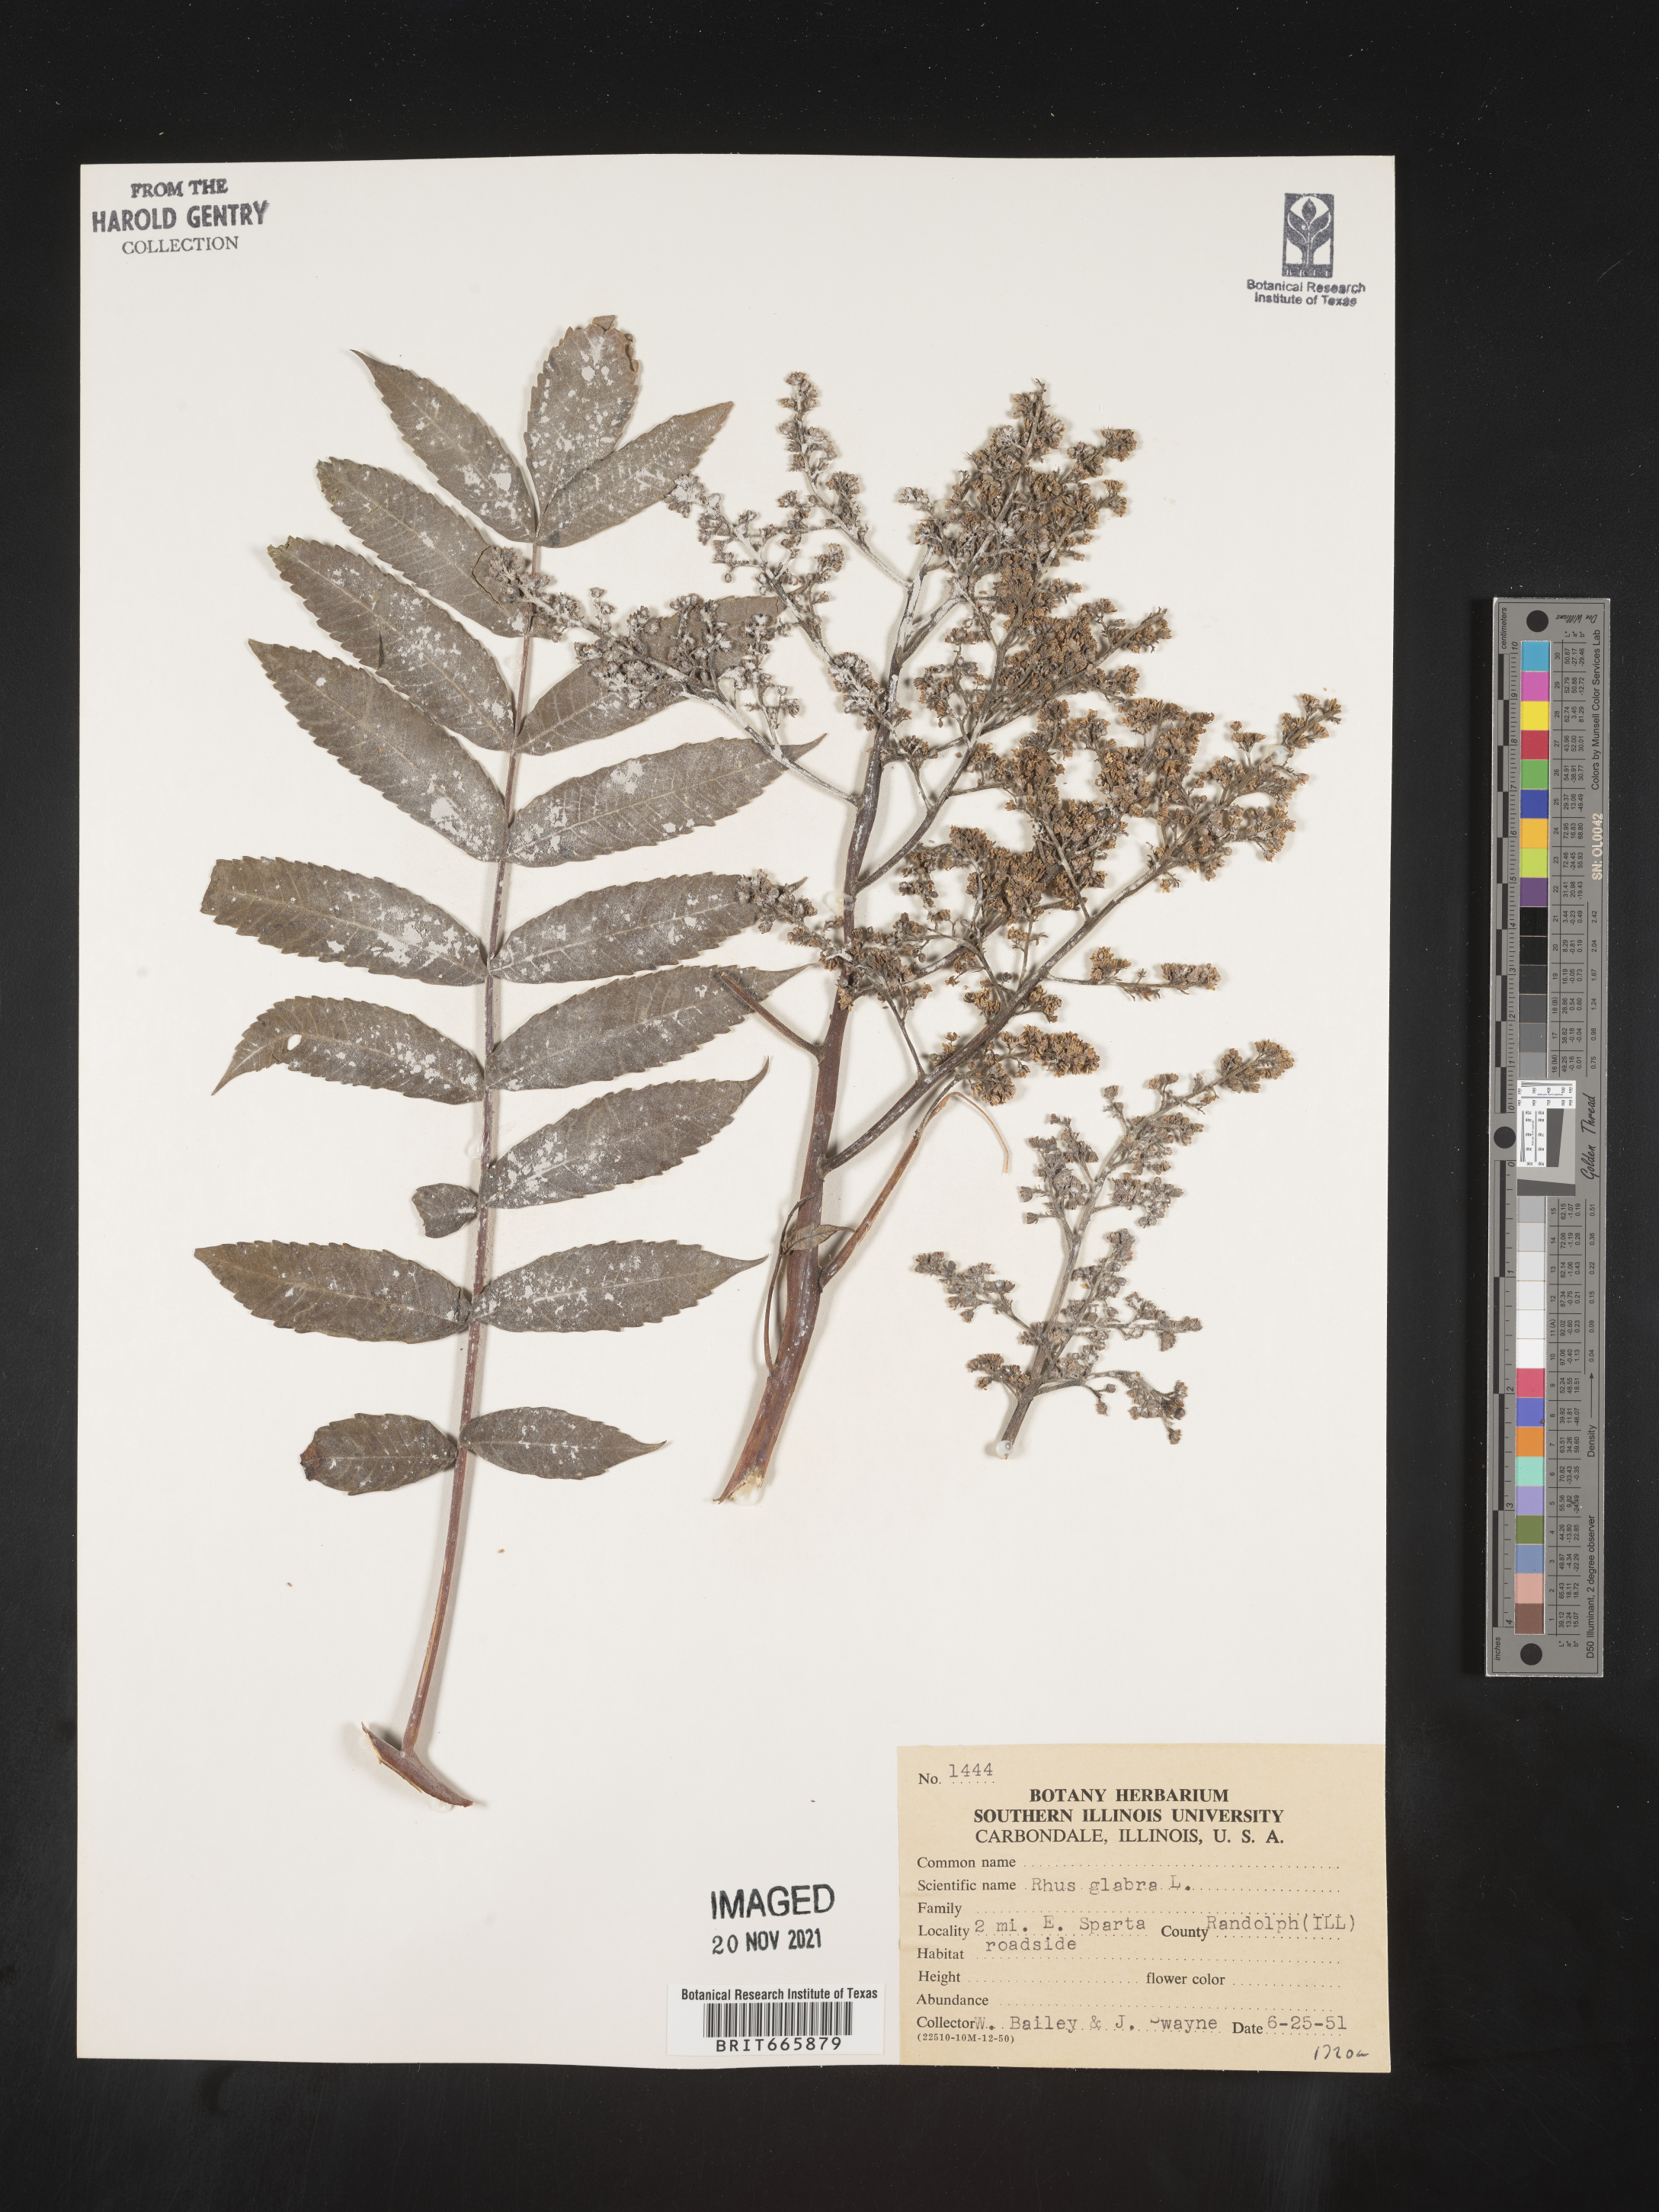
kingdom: Plantae
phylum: Tracheophyta
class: Magnoliopsida
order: Sapindales
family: Anacardiaceae
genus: Rhus
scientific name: Rhus copallina
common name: Shining sumac
